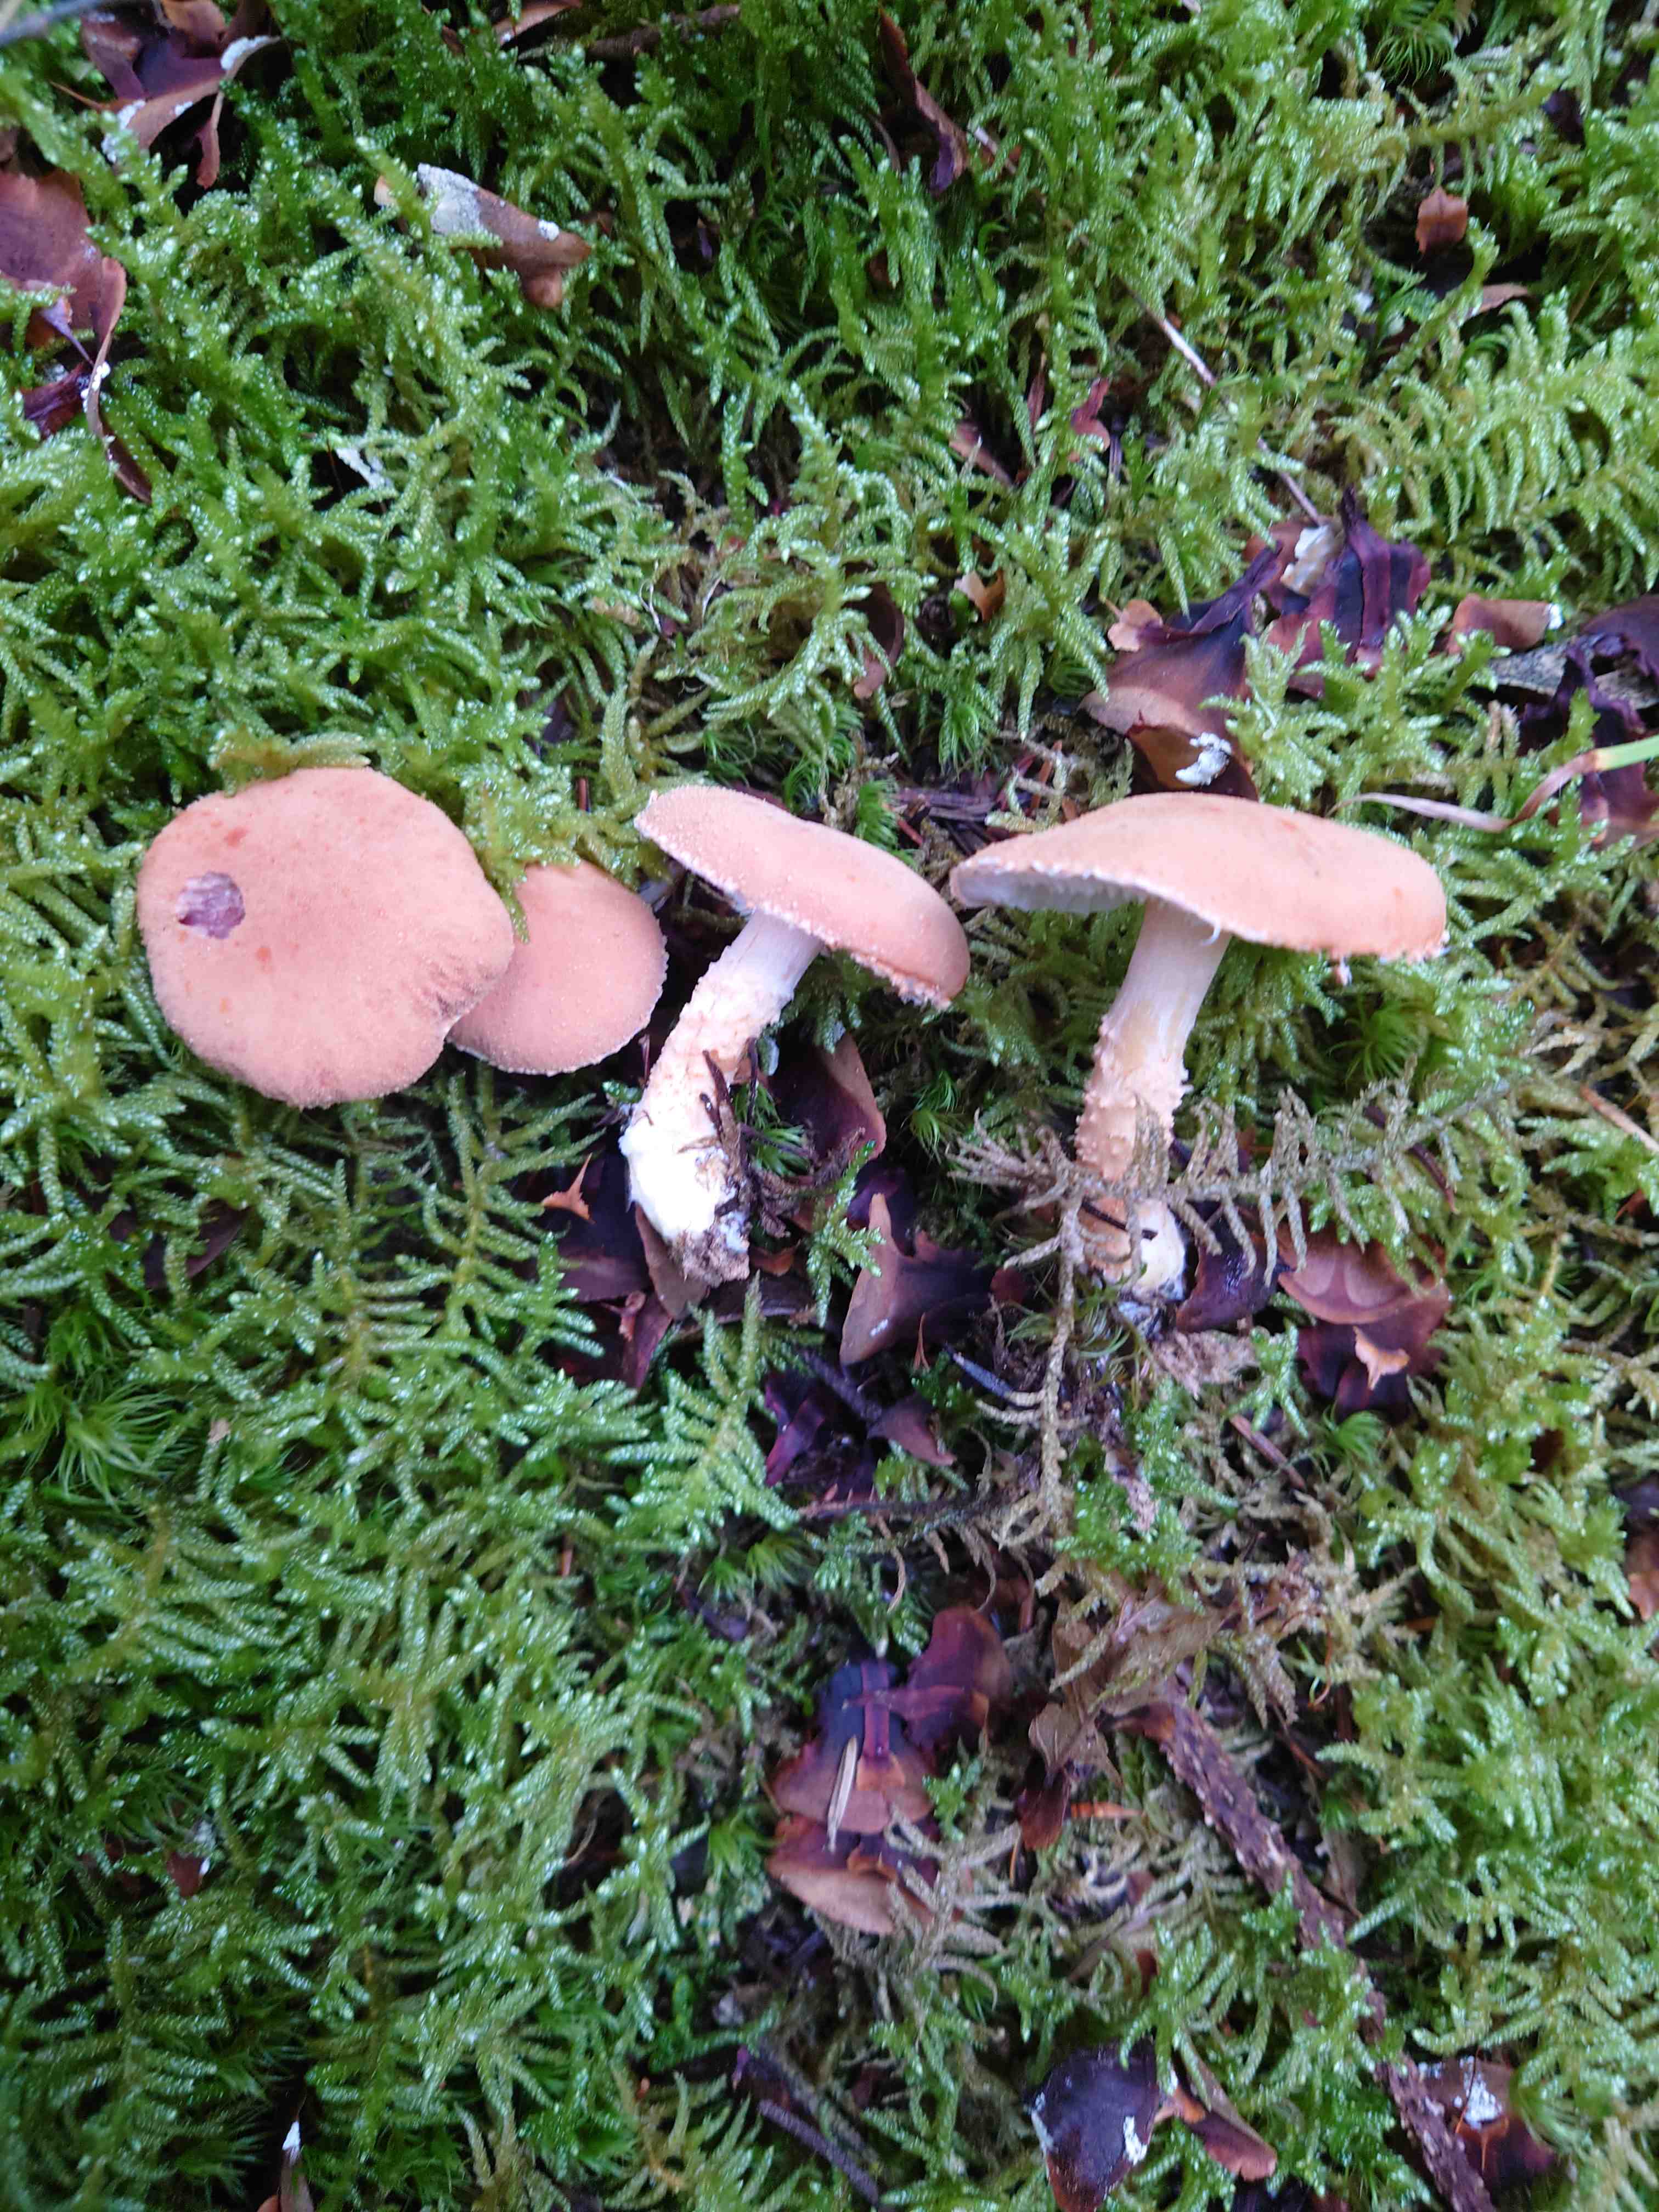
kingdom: Fungi
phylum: Basidiomycota
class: Agaricomycetes
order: Agaricales
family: Agaricaceae
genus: Cystodermella
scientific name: Cystodermella cinnabarina
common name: cinnober-grynhat
